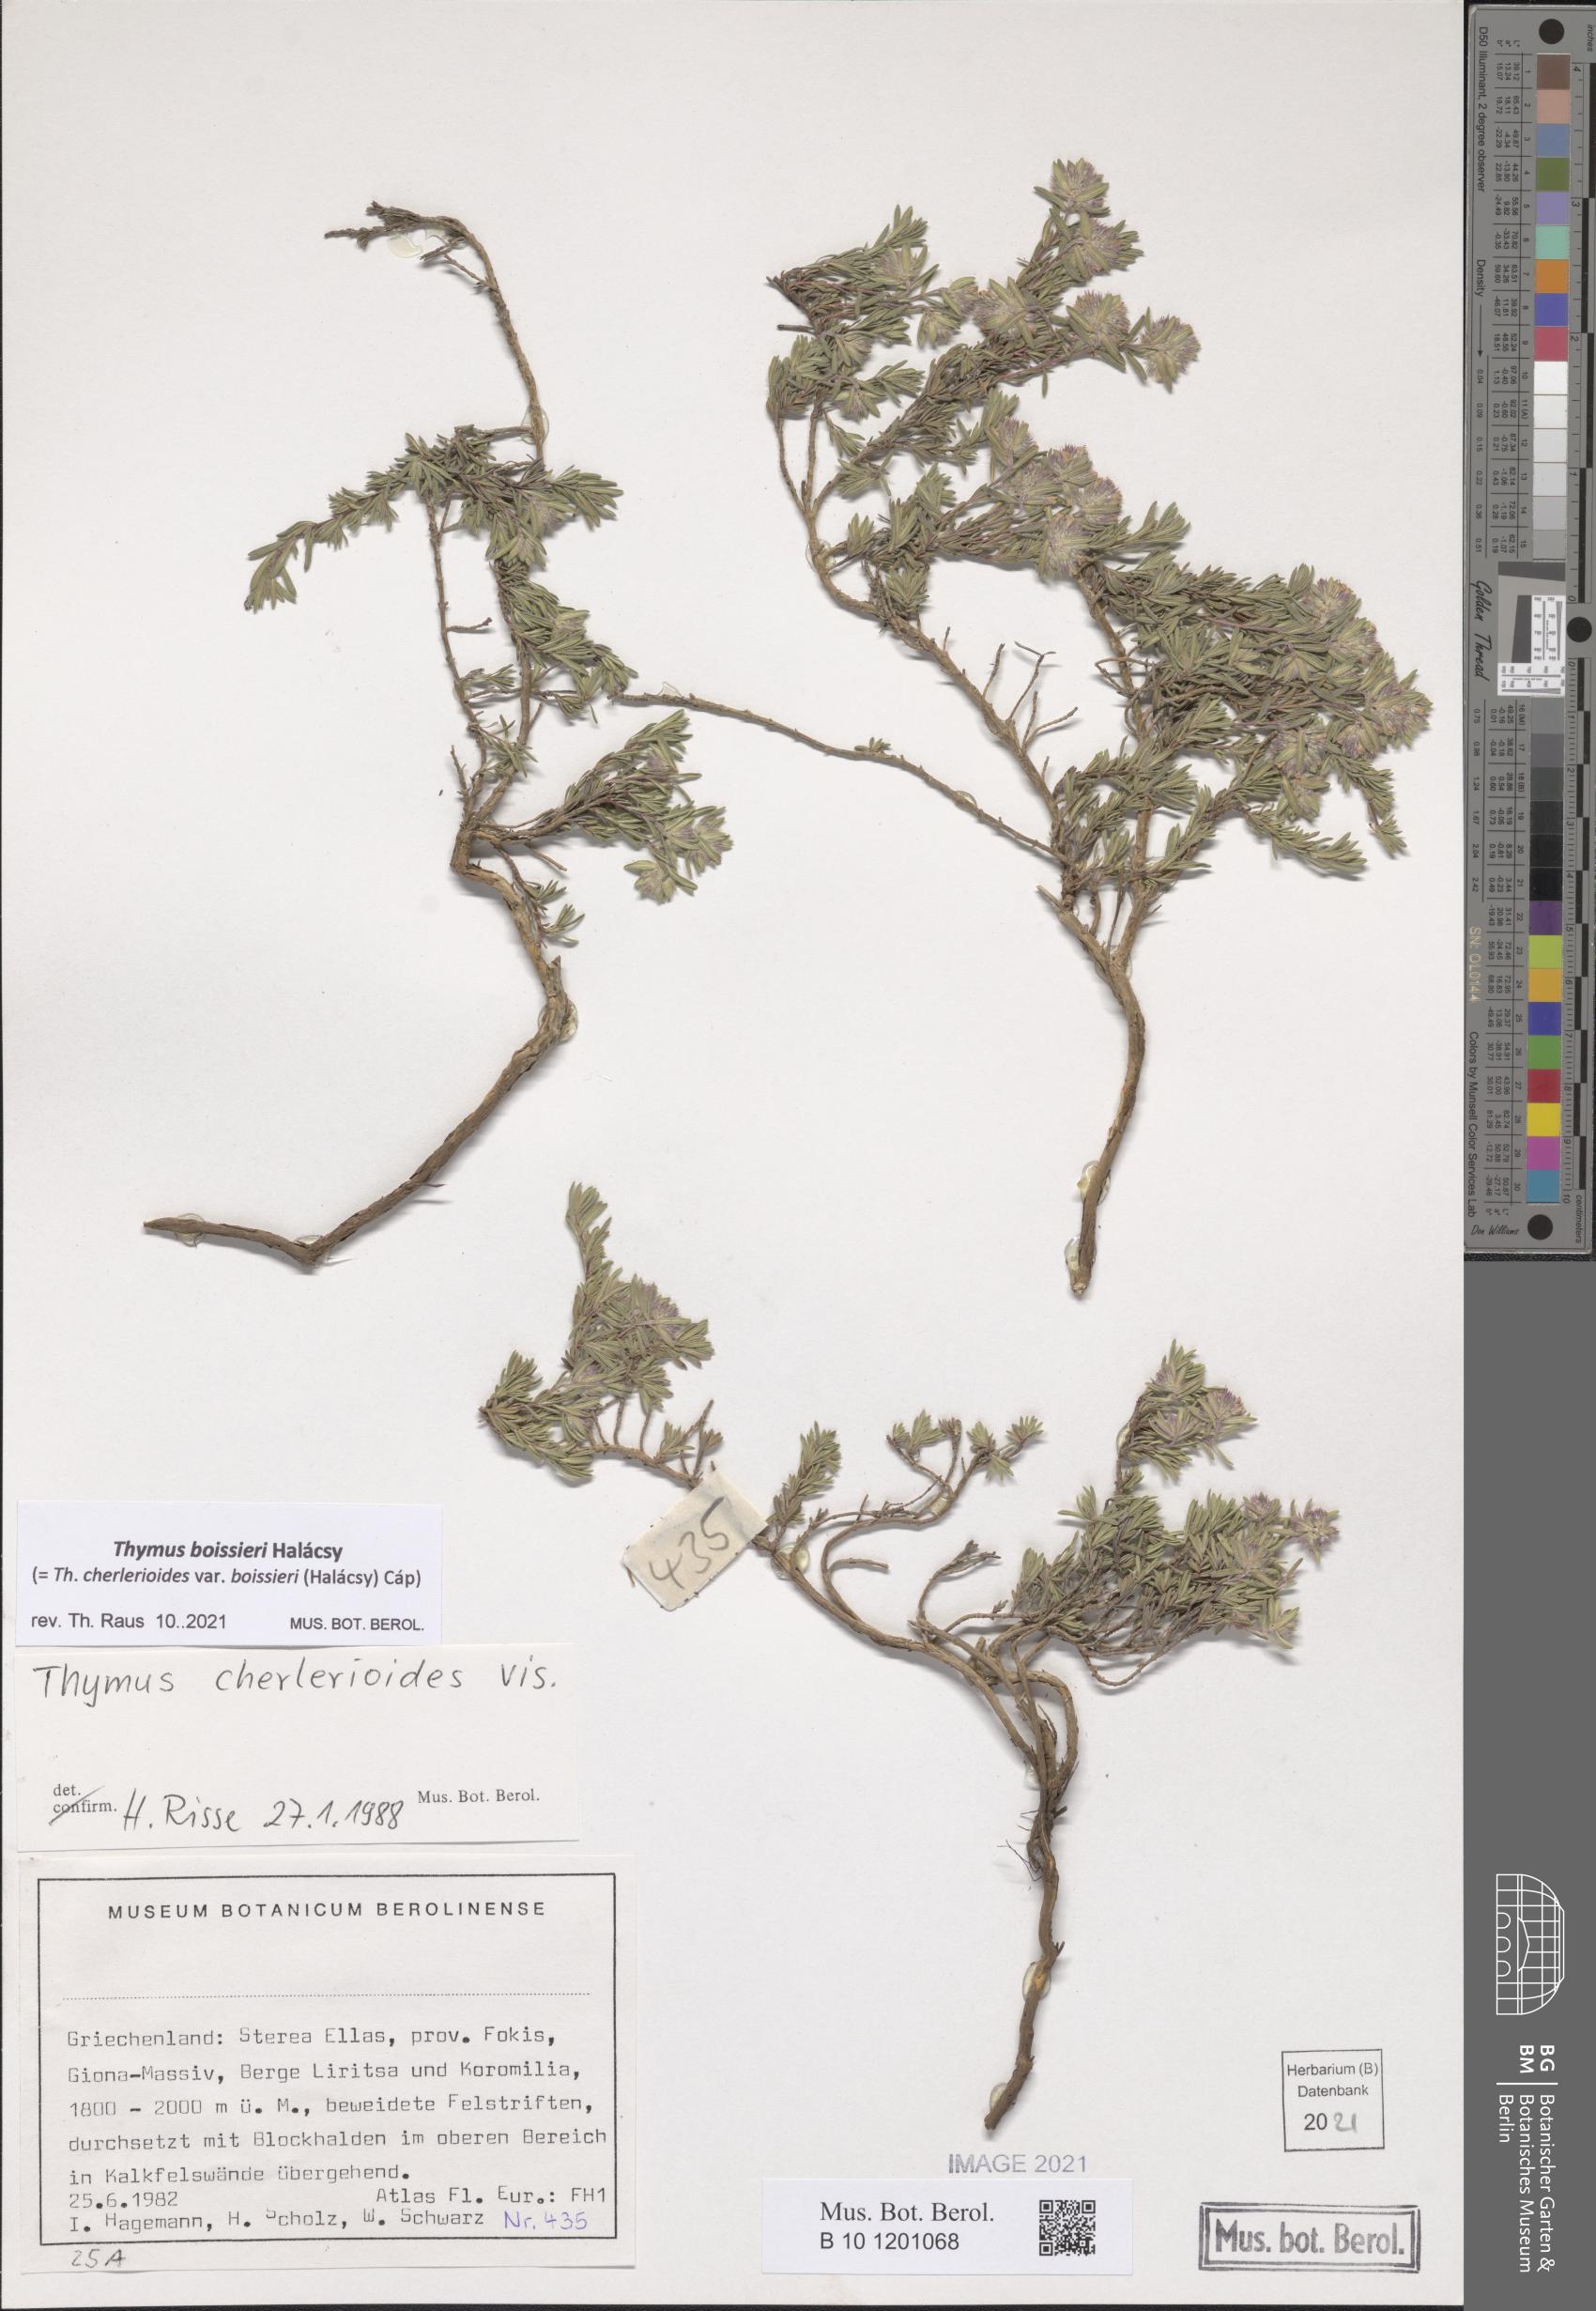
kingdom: Plantae
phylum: Tracheophyta
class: Magnoliopsida
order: Lamiales
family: Lamiaceae
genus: Thymus
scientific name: Thymus boissieri
